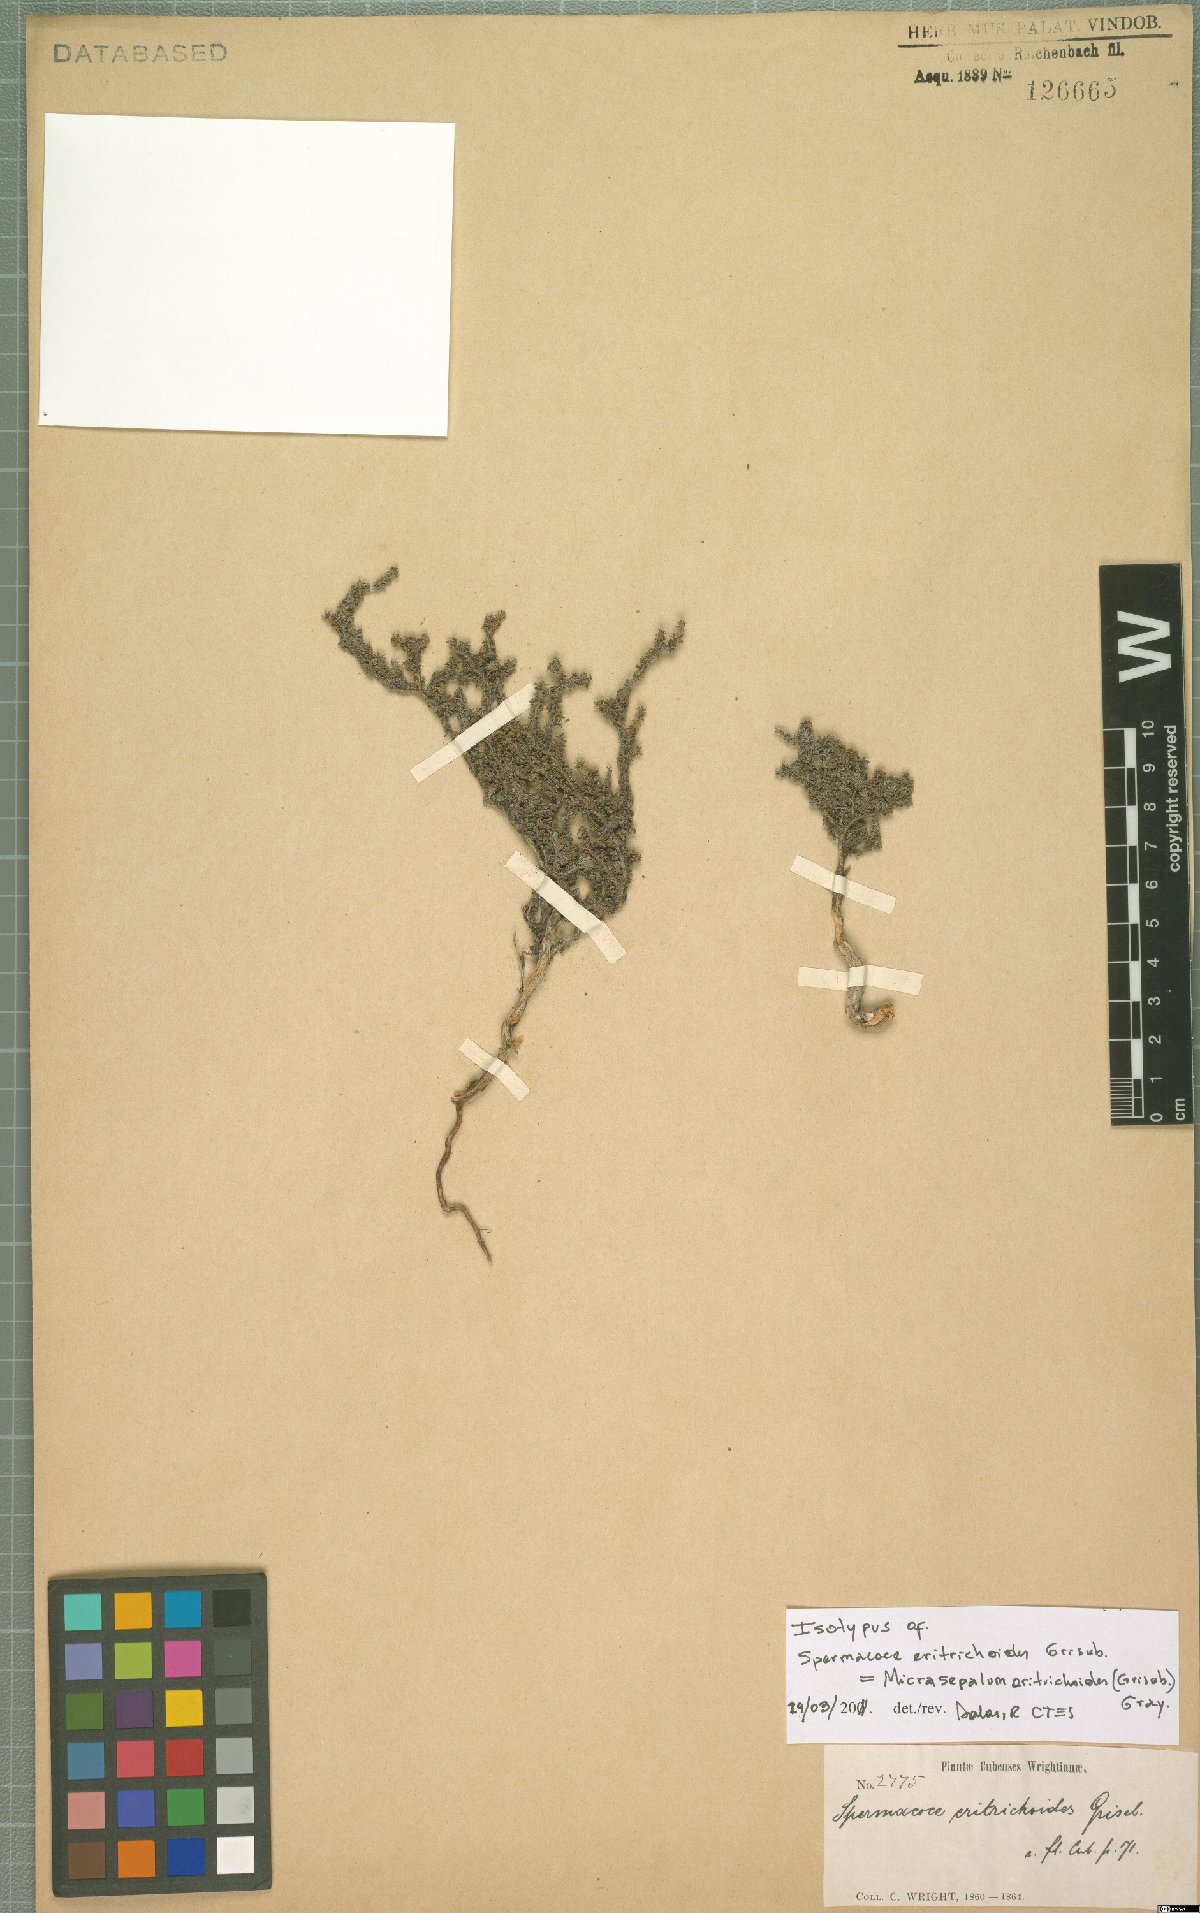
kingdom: Plantae
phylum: Tracheophyta
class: Magnoliopsida
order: Gentianales
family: Rubiaceae
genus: Micrasepalum
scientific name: Micrasepalum eritrichoides
